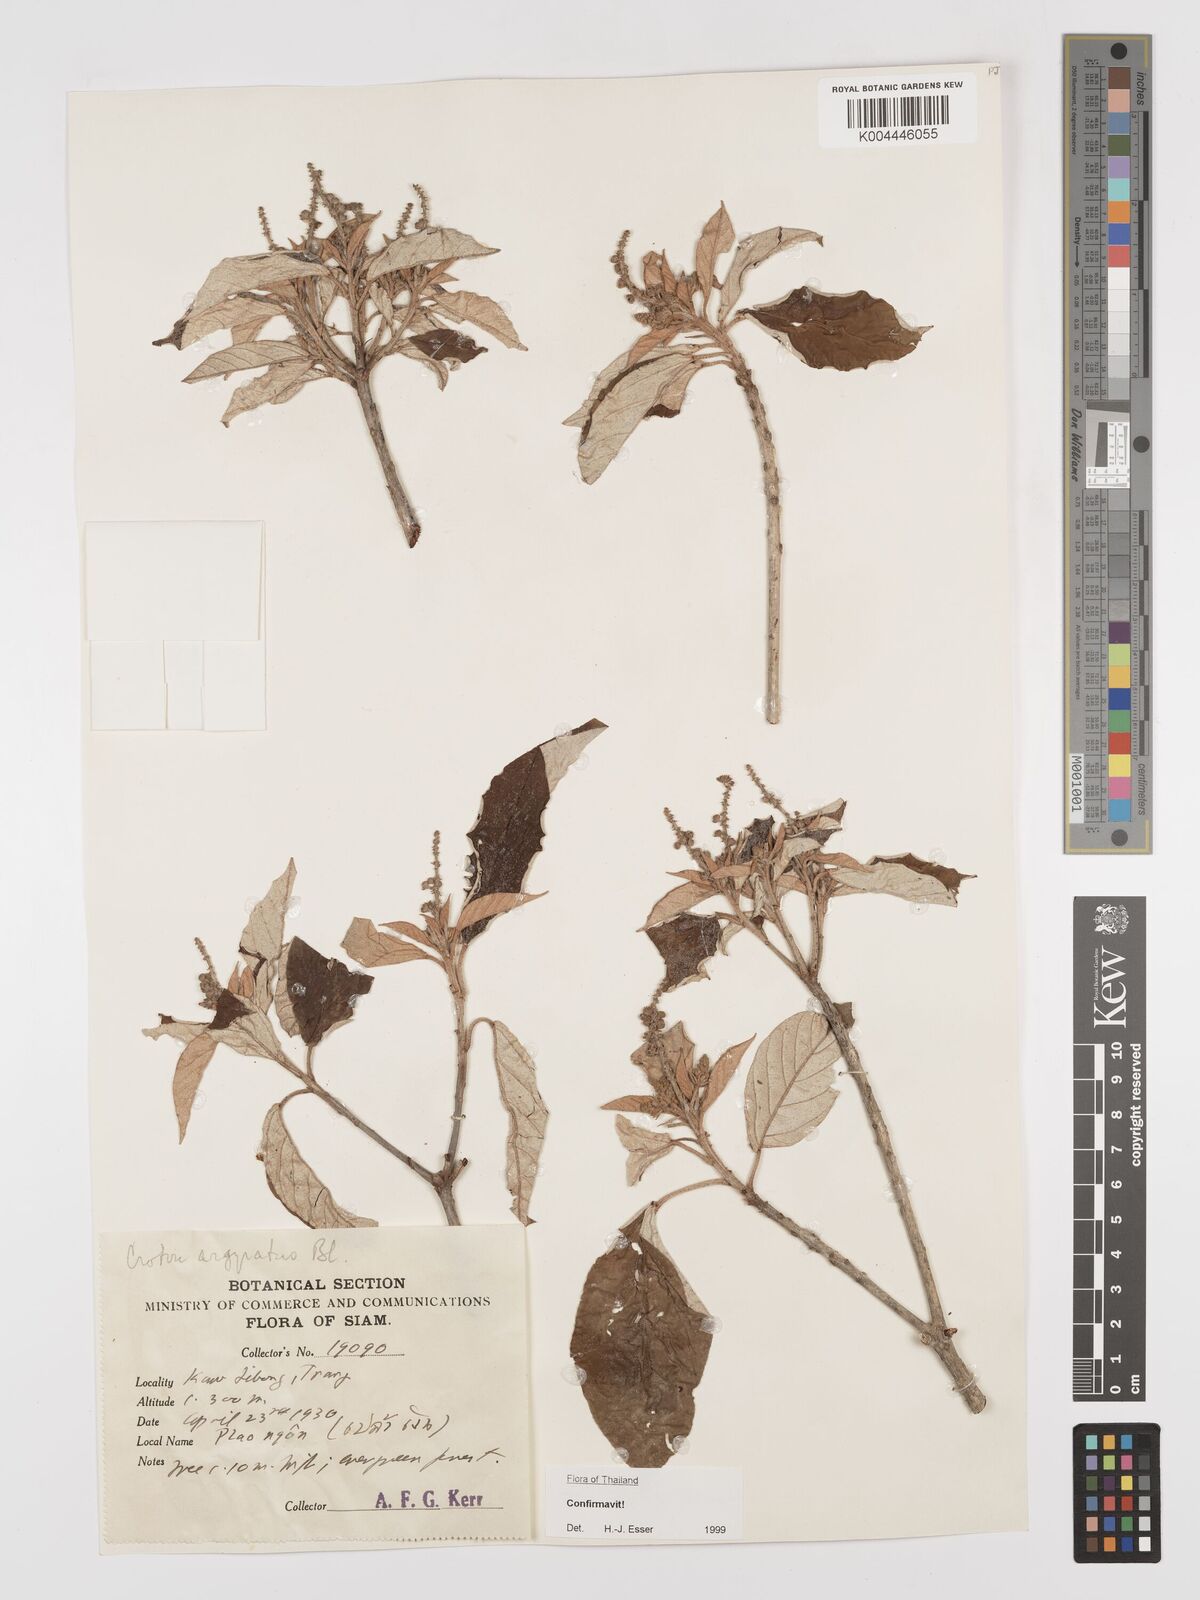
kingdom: Plantae
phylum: Tracheophyta
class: Magnoliopsida
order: Malpighiales
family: Euphorbiaceae
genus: Croton
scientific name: Croton argyratus
